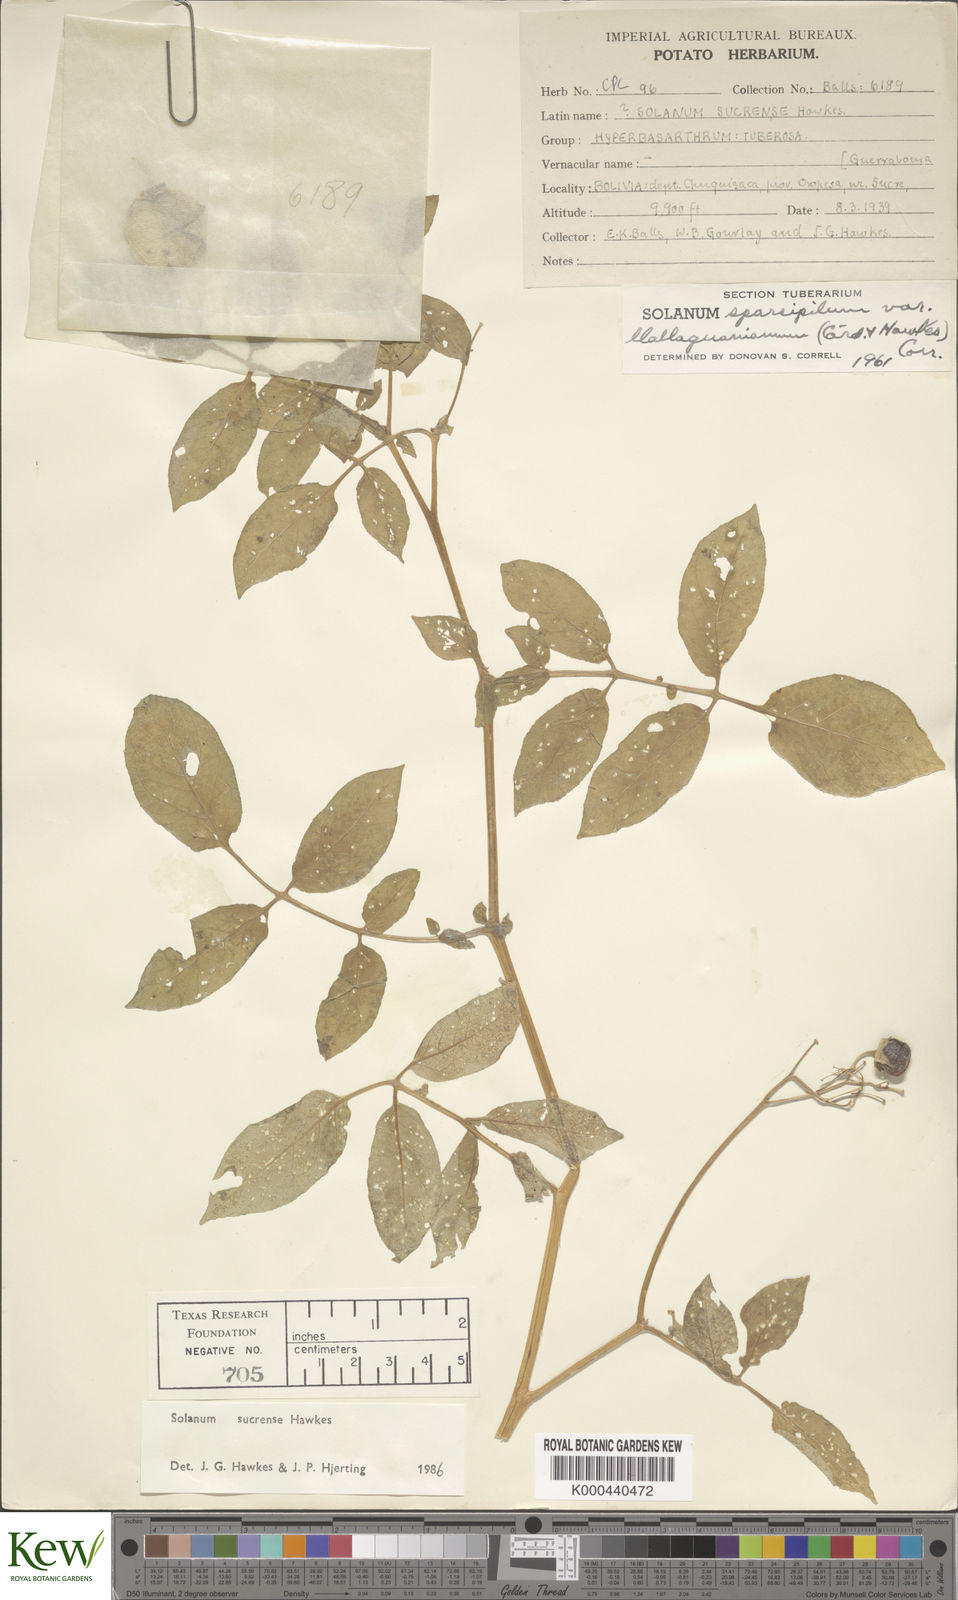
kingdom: Plantae
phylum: Tracheophyta
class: Magnoliopsida
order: Solanales
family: Solanaceae
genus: Solanum
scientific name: Solanum brevicaule
